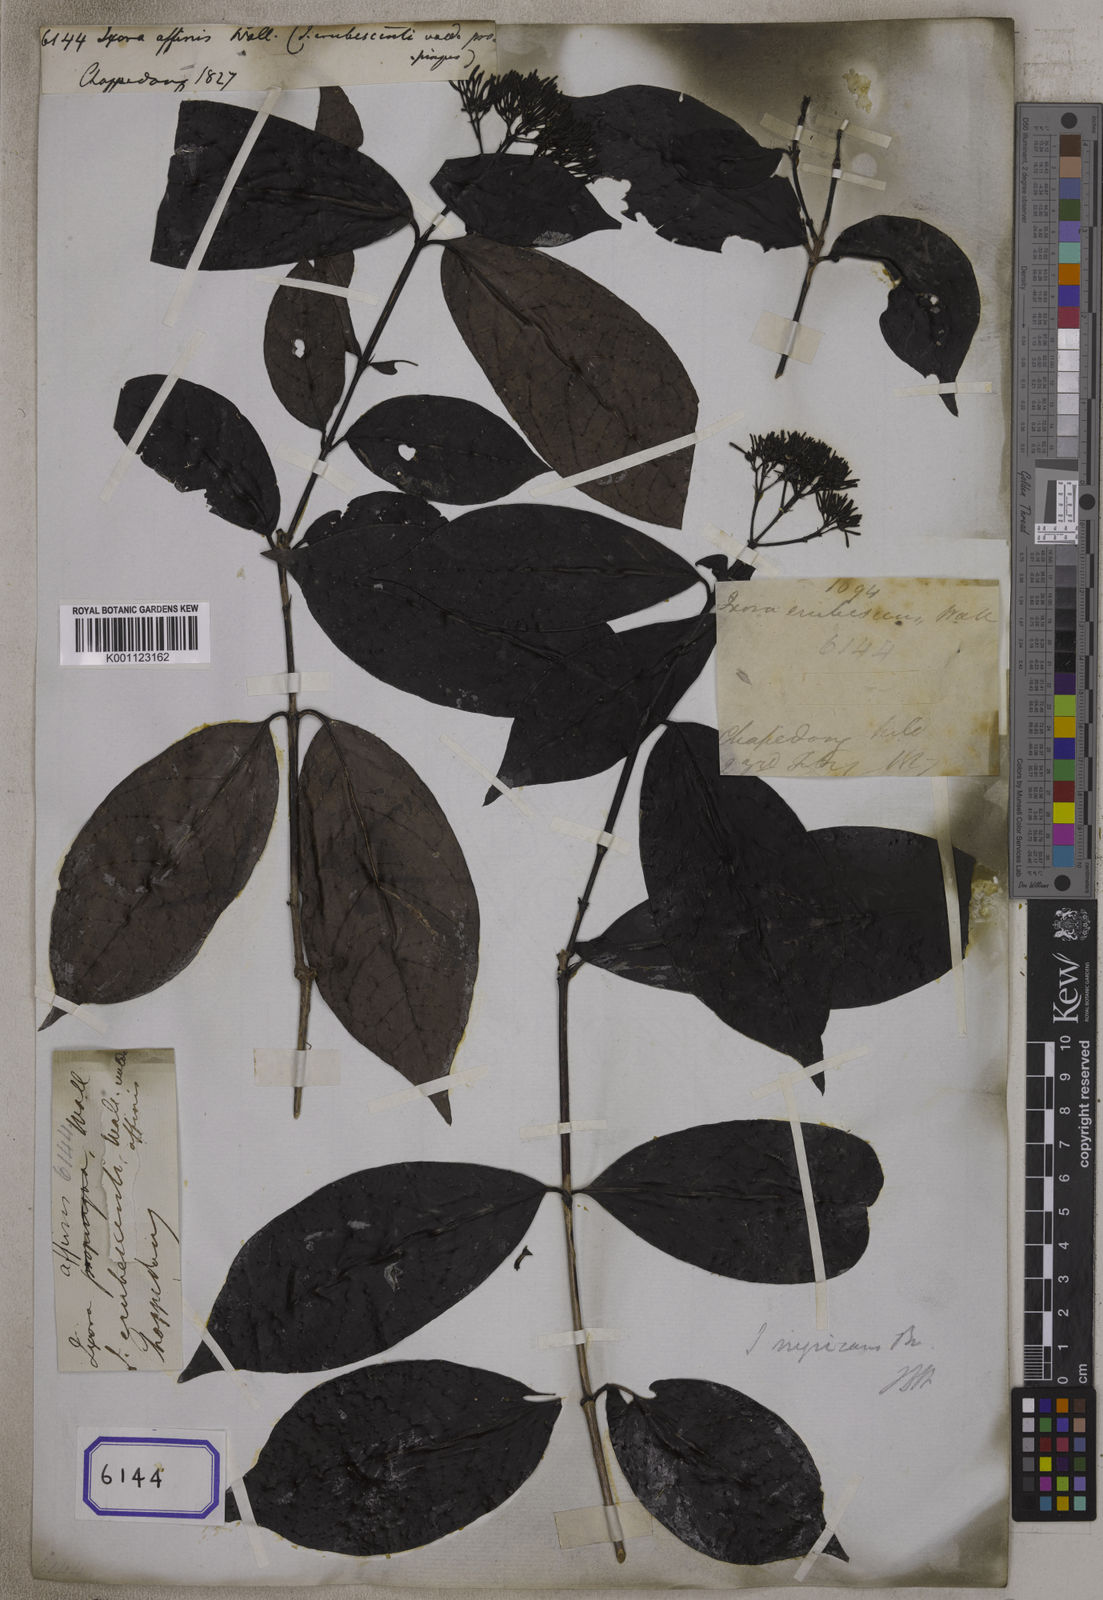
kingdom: Plantae
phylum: Tracheophyta
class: Magnoliopsida
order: Gentianales
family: Rubiaceae
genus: Ixora
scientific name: Ixora
